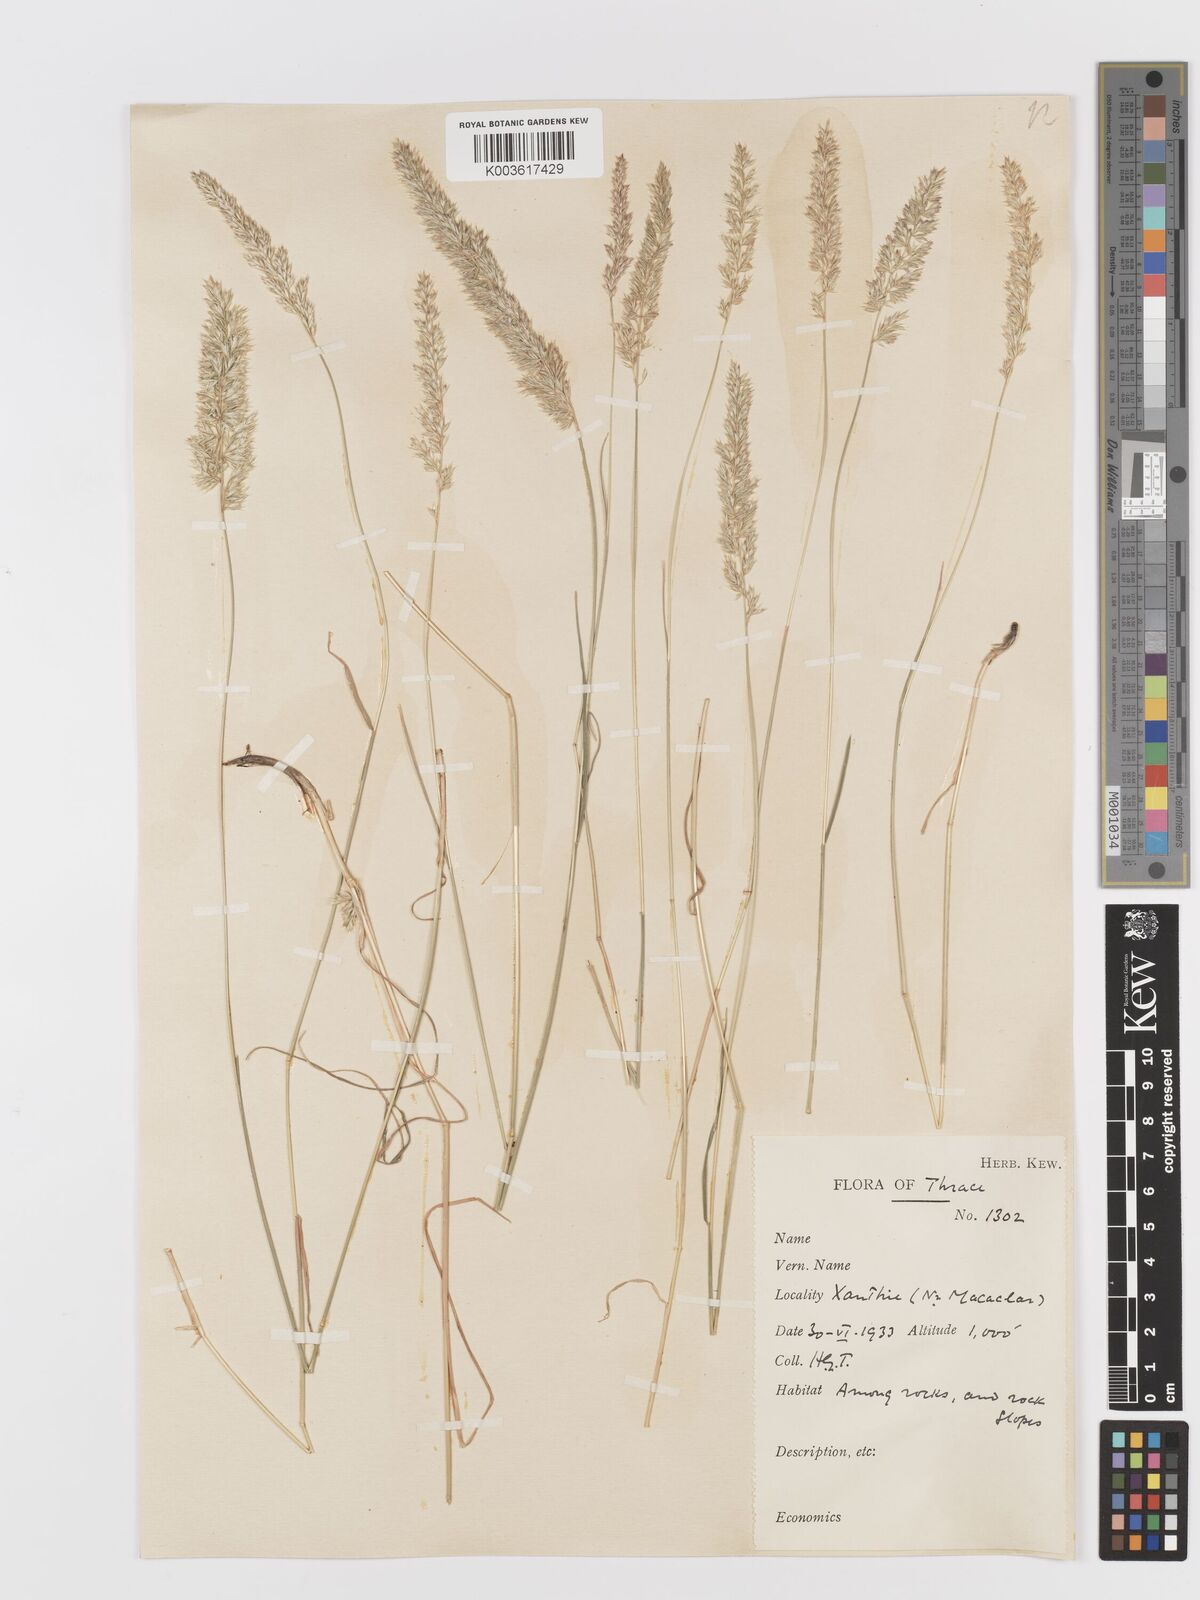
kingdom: Plantae
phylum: Tracheophyta
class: Liliopsida
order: Poales
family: Poaceae
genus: Koeleria
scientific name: Koeleria nitidula
